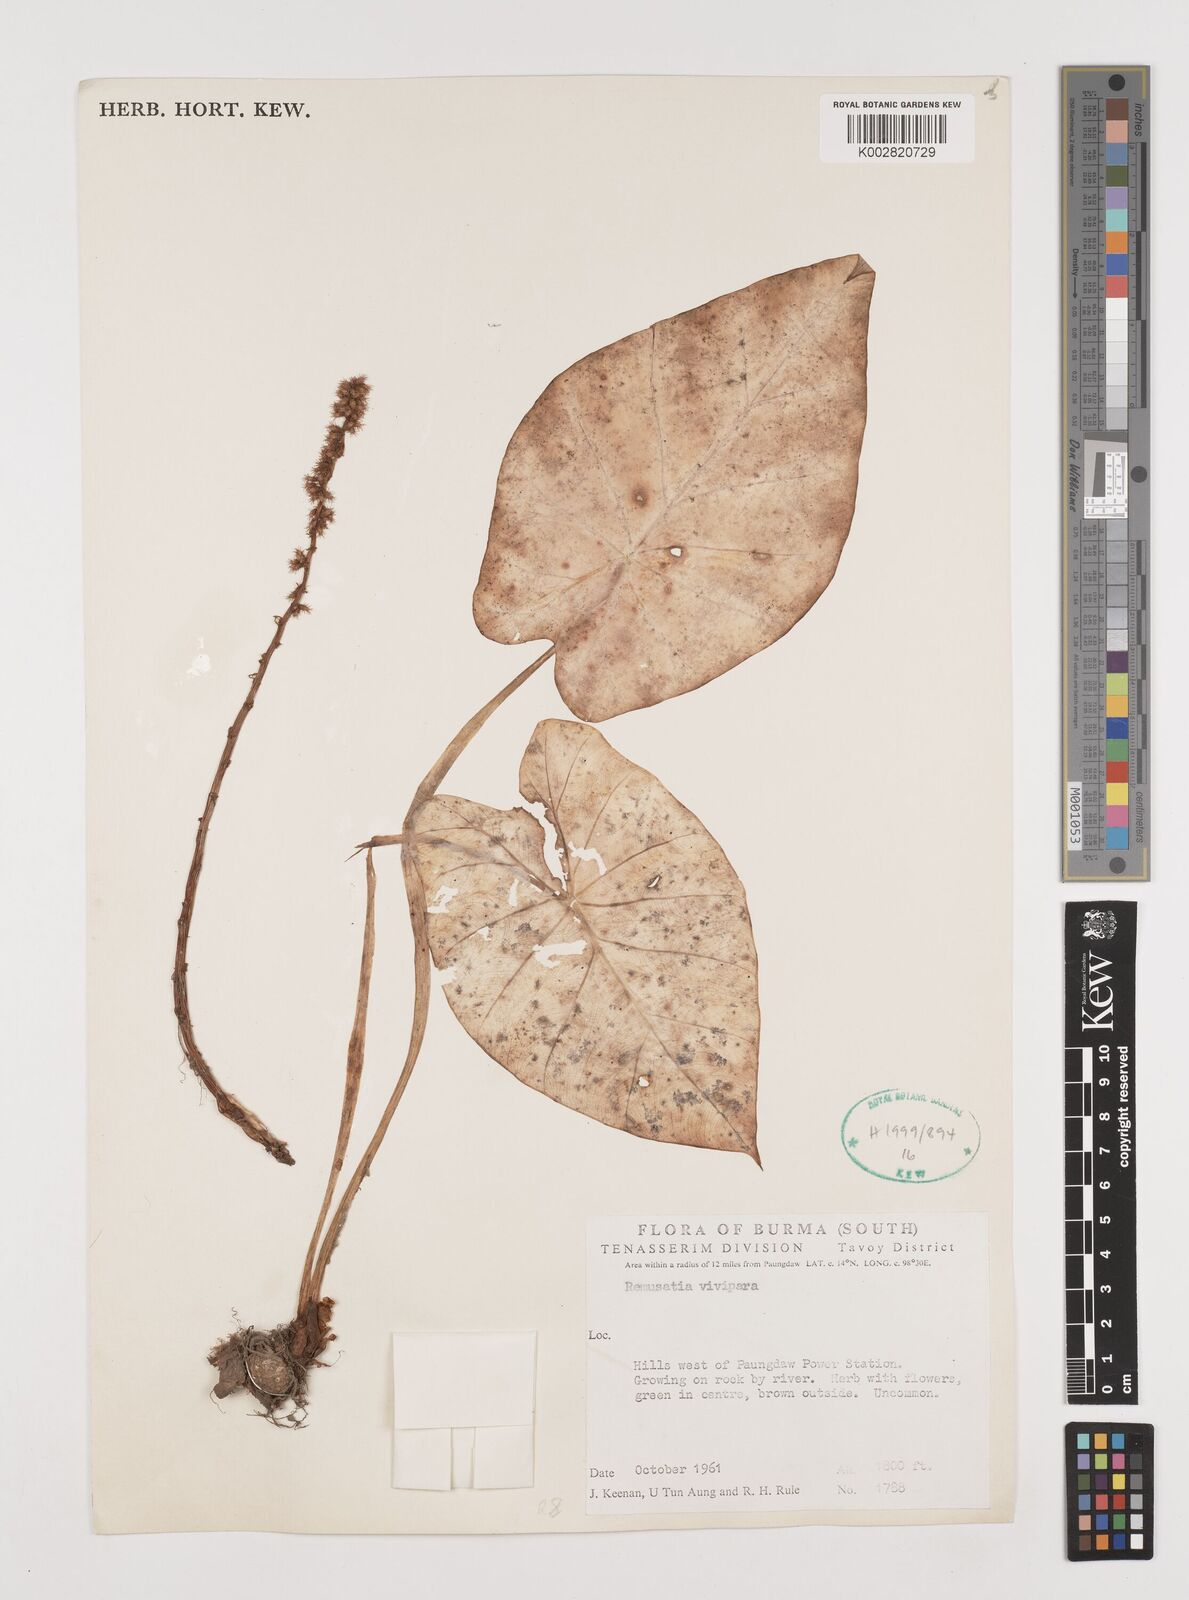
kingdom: Plantae
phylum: Tracheophyta
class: Liliopsida
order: Alismatales
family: Araceae
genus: Remusatia
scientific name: Remusatia vivipara
